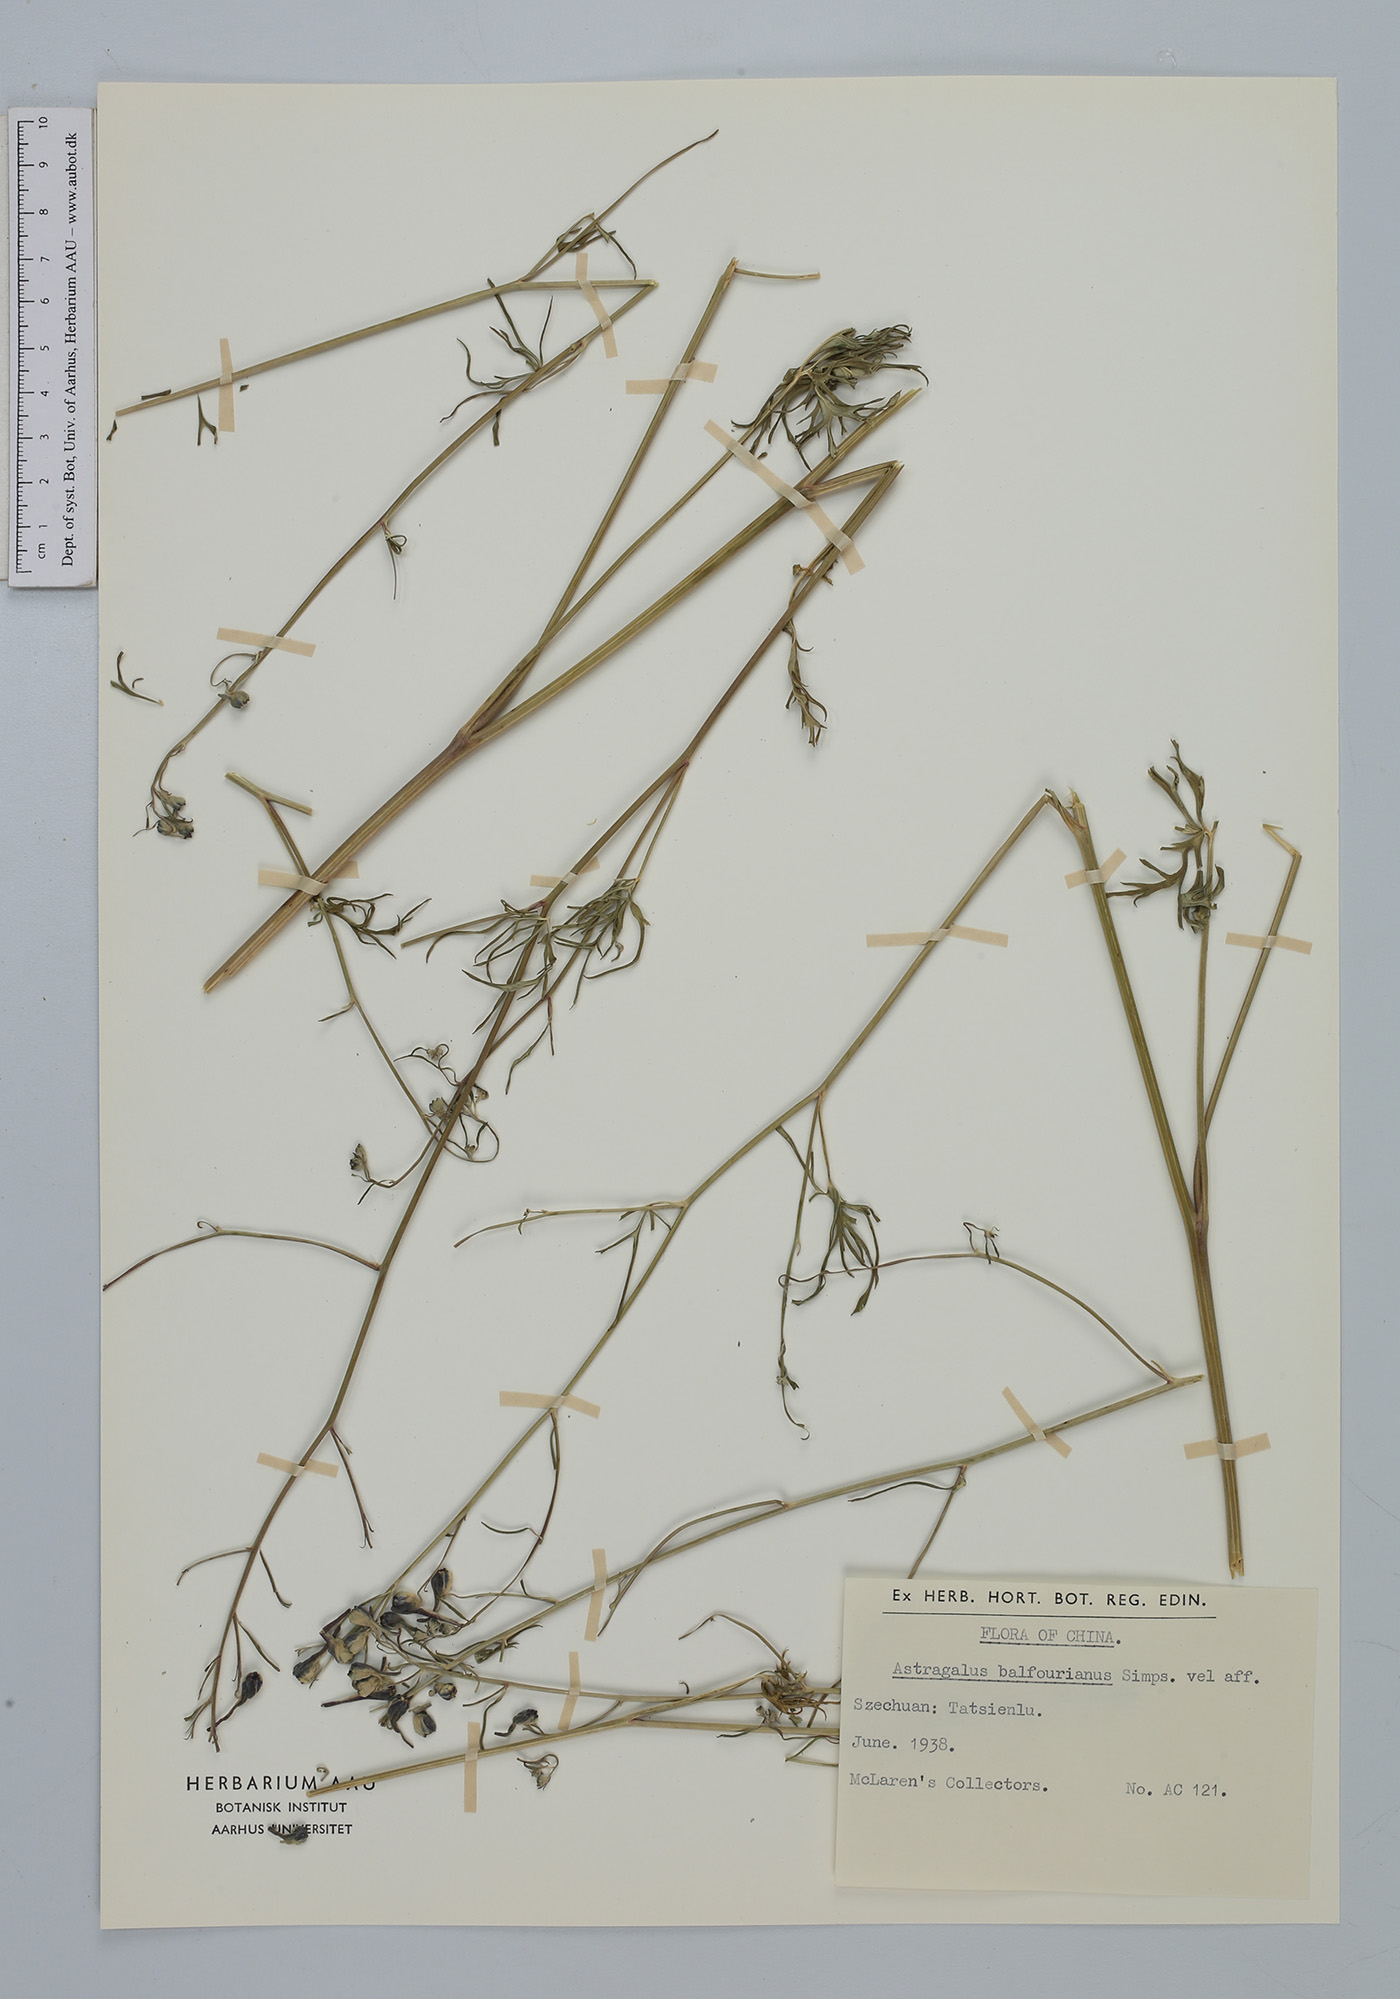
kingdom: Plantae
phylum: Tracheophyta
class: Magnoliopsida
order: Fabales
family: Fabaceae
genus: Astragalus
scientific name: Astragalus balfourianus
